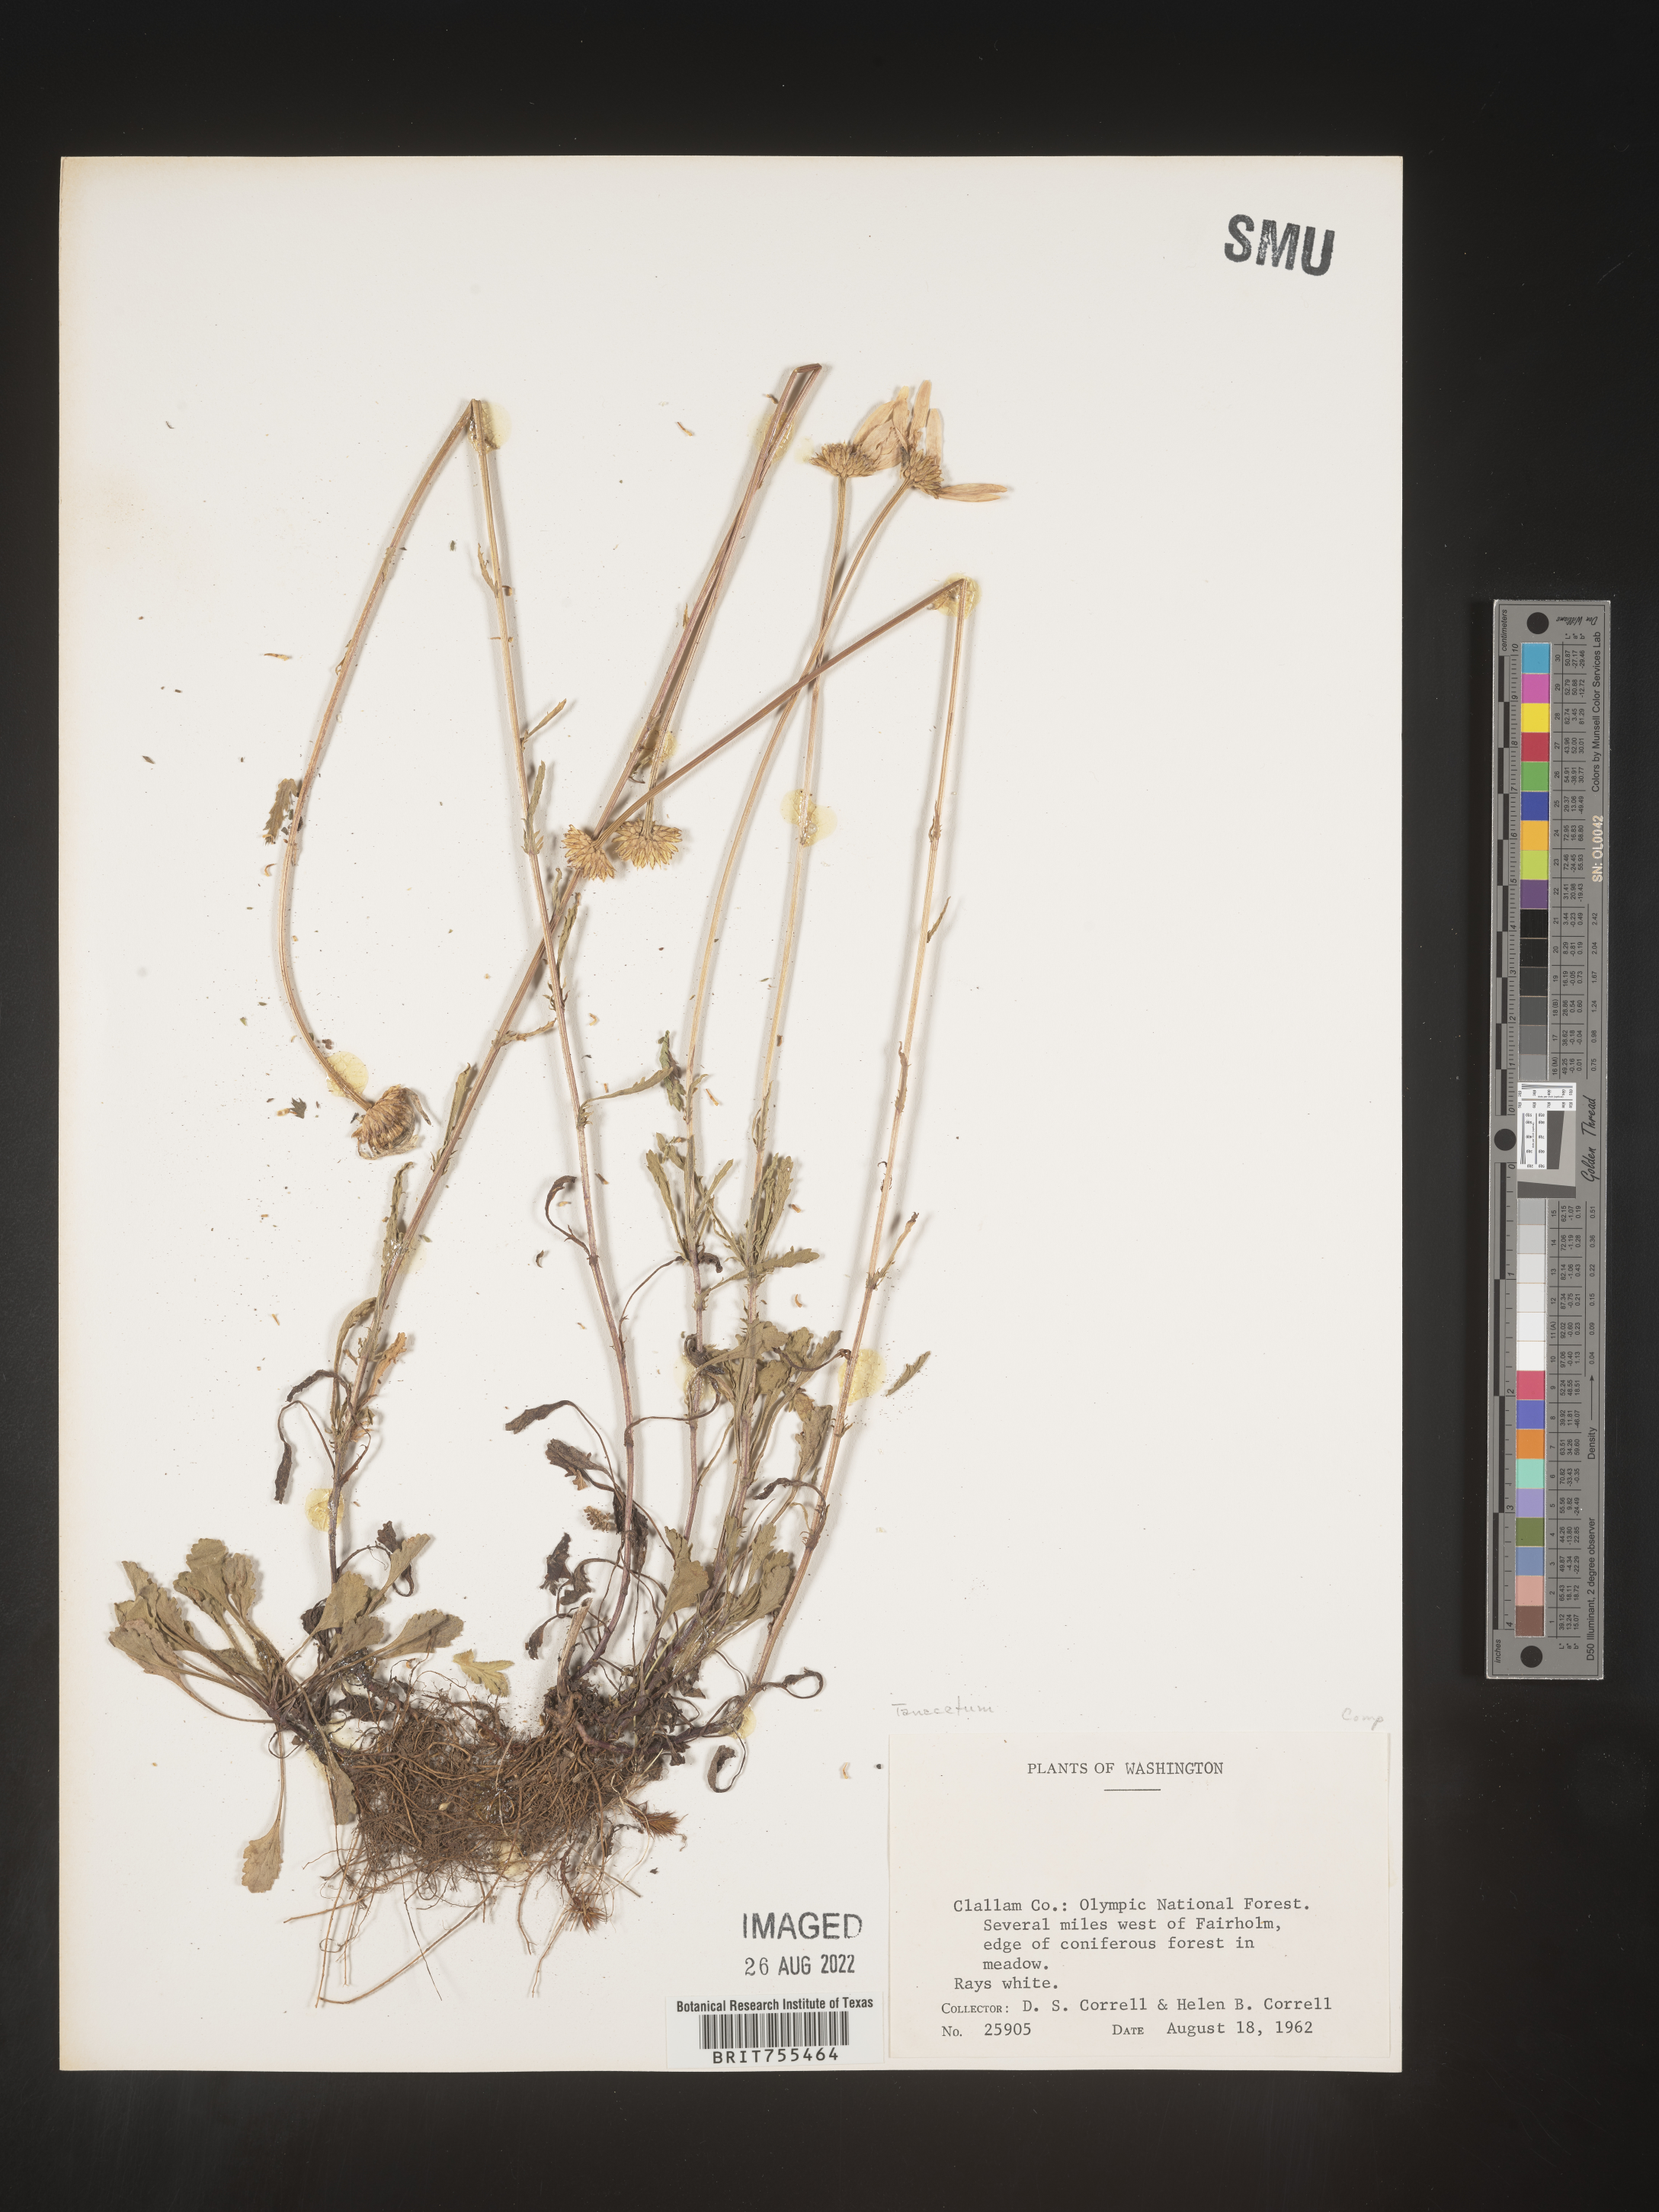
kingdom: Plantae
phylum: Tracheophyta
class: Magnoliopsida
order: Asterales
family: Asteraceae
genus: Tanacetum
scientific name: Tanacetum vulgare
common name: Common tansy
